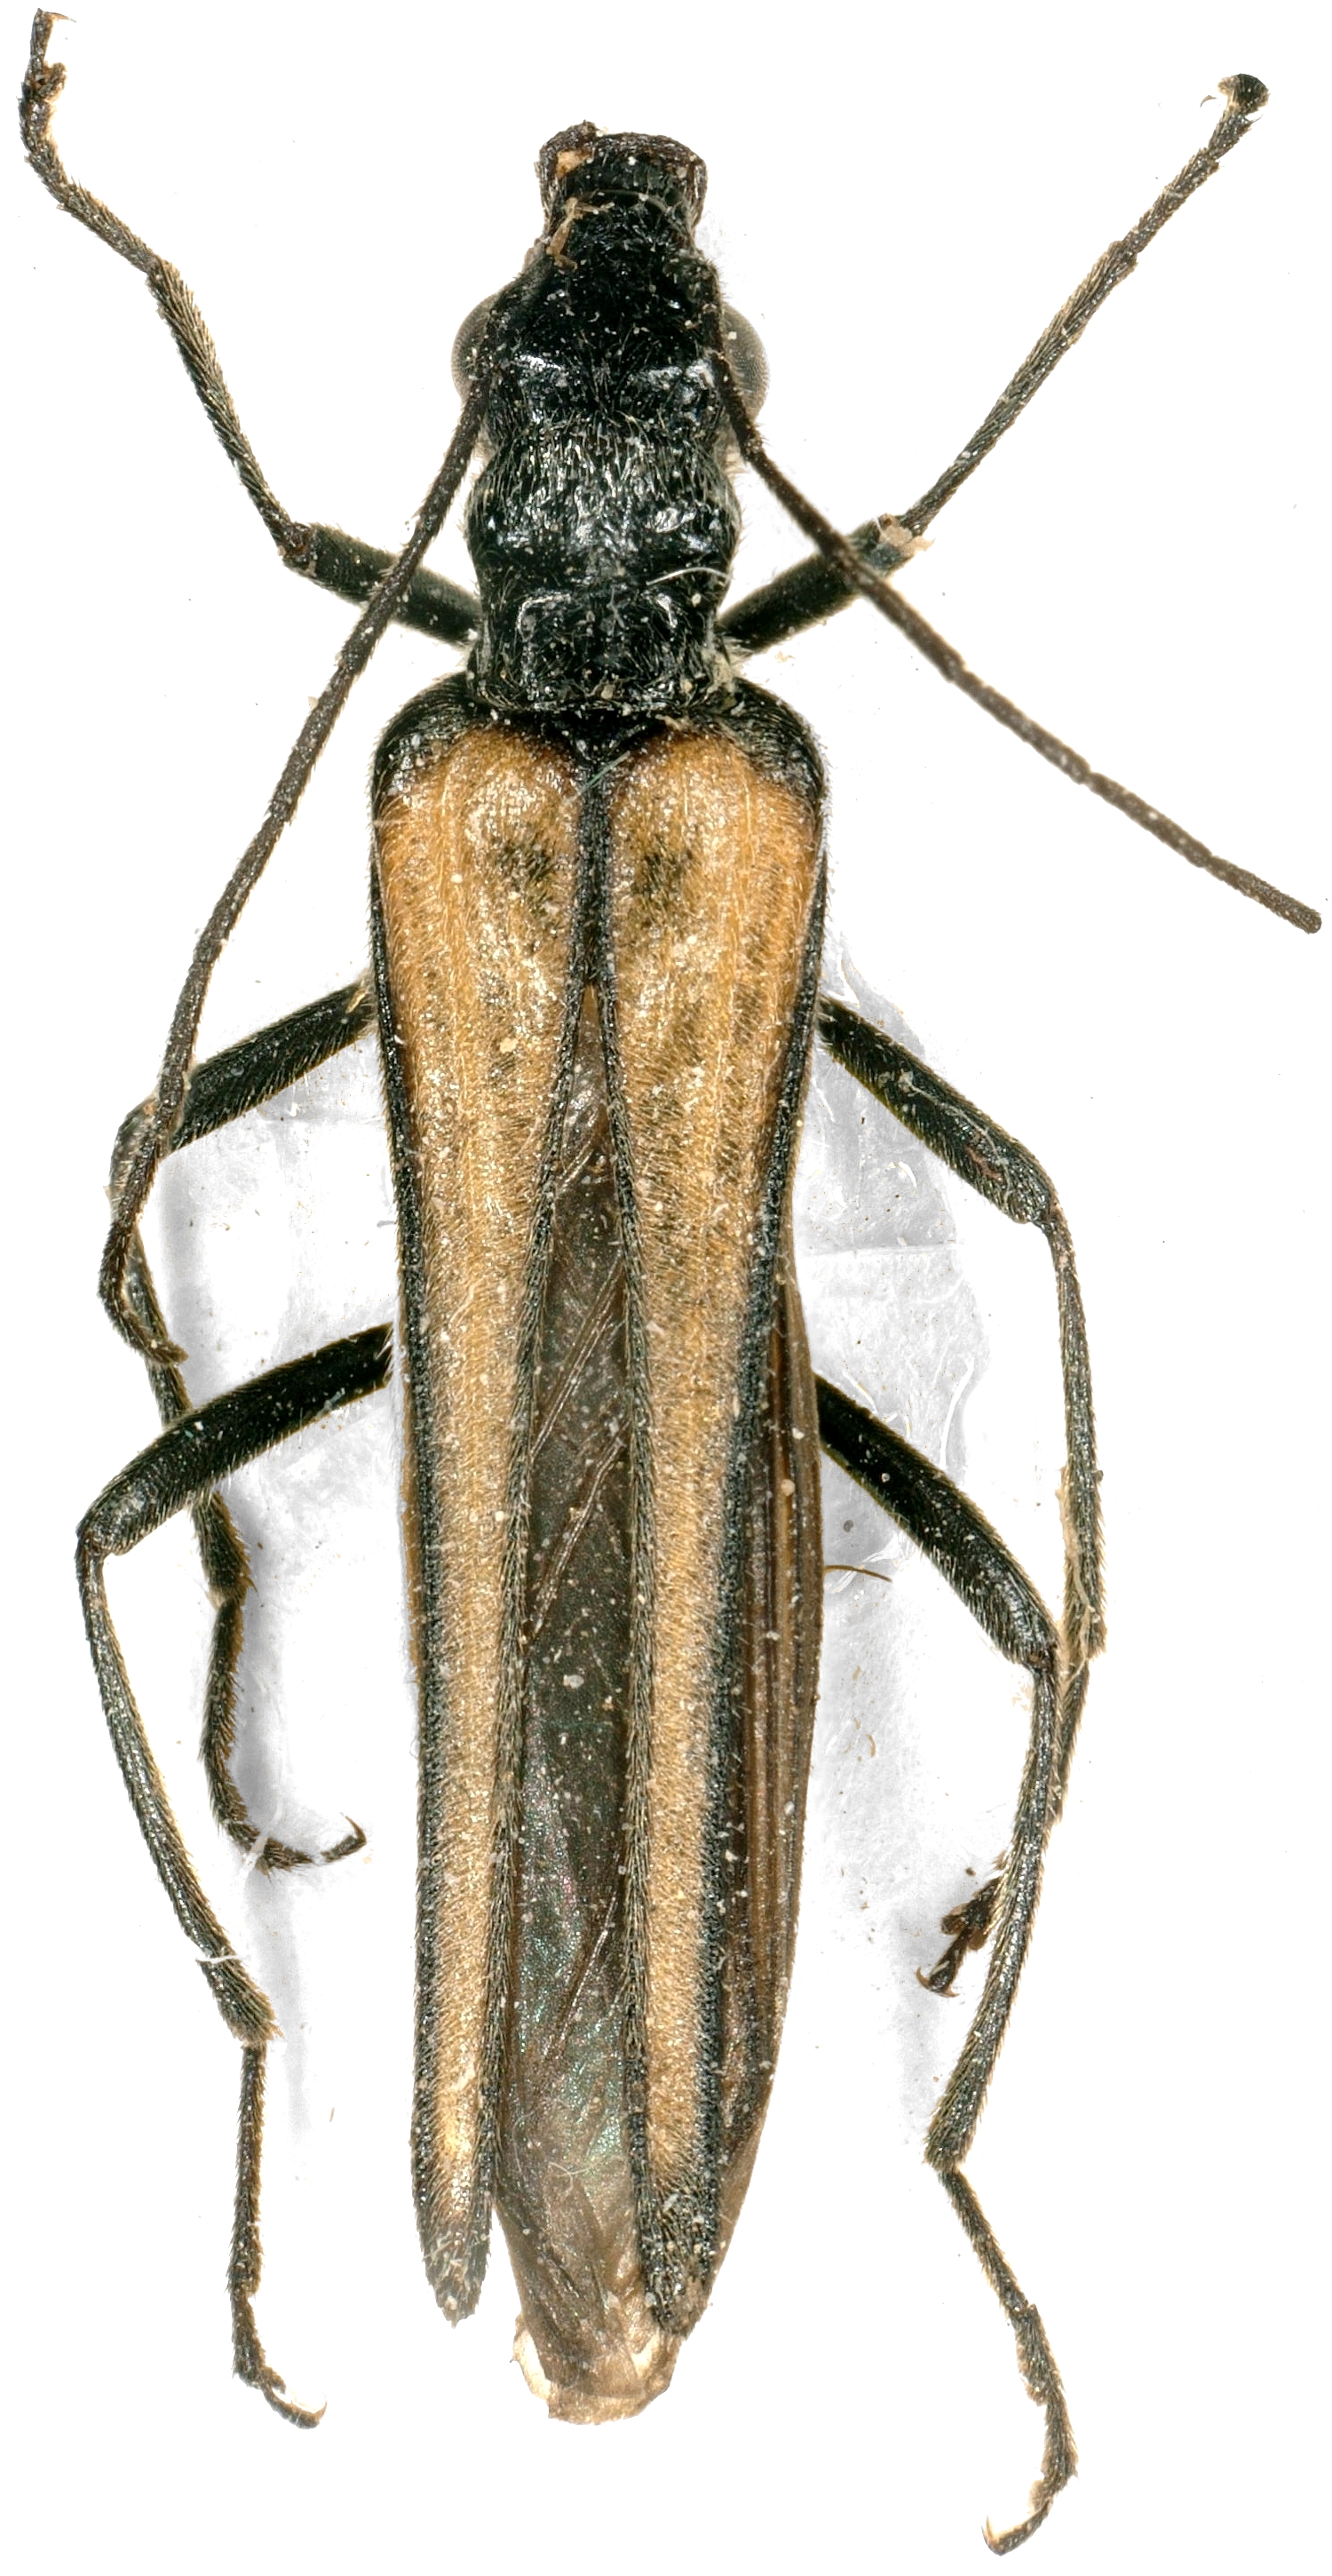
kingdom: Animalia
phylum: Arthropoda
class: Insecta
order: Coleoptera
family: Oedemeridae
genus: Oedemera
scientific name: Oedemera pthysica
